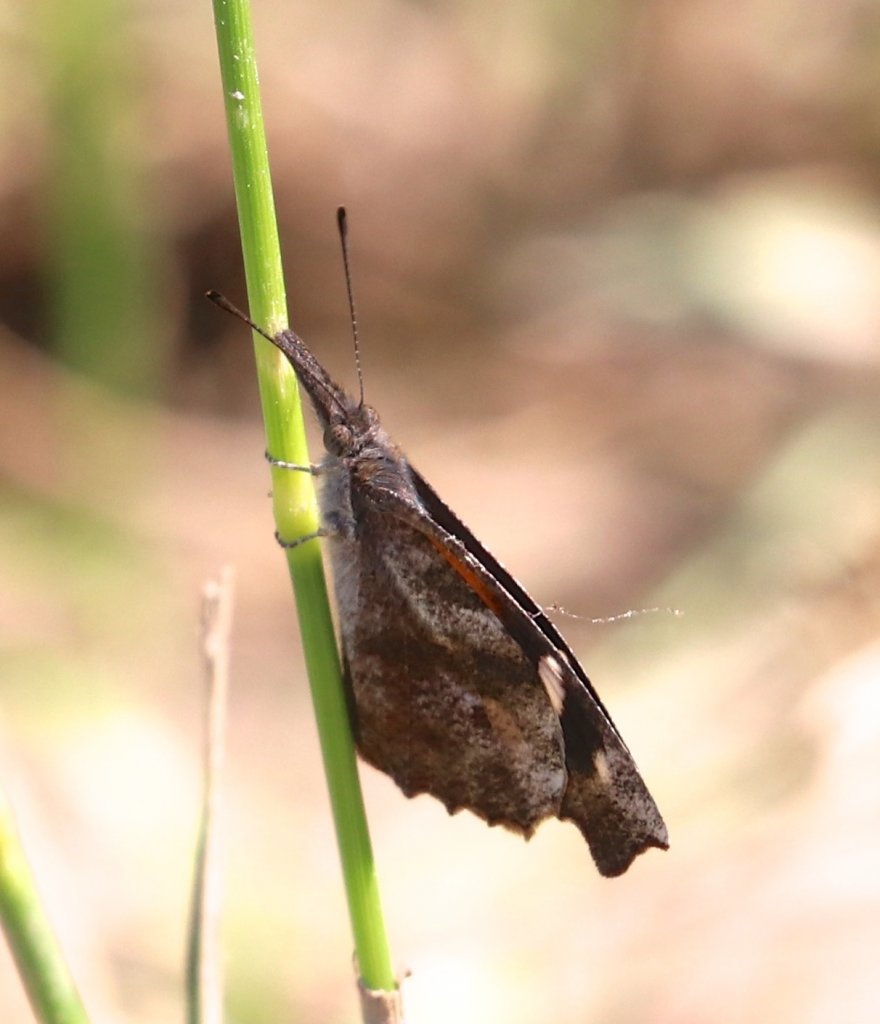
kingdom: Animalia
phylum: Arthropoda
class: Insecta
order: Lepidoptera
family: Nymphalidae
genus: Libytheana
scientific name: Libytheana carinenta
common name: American Snout
